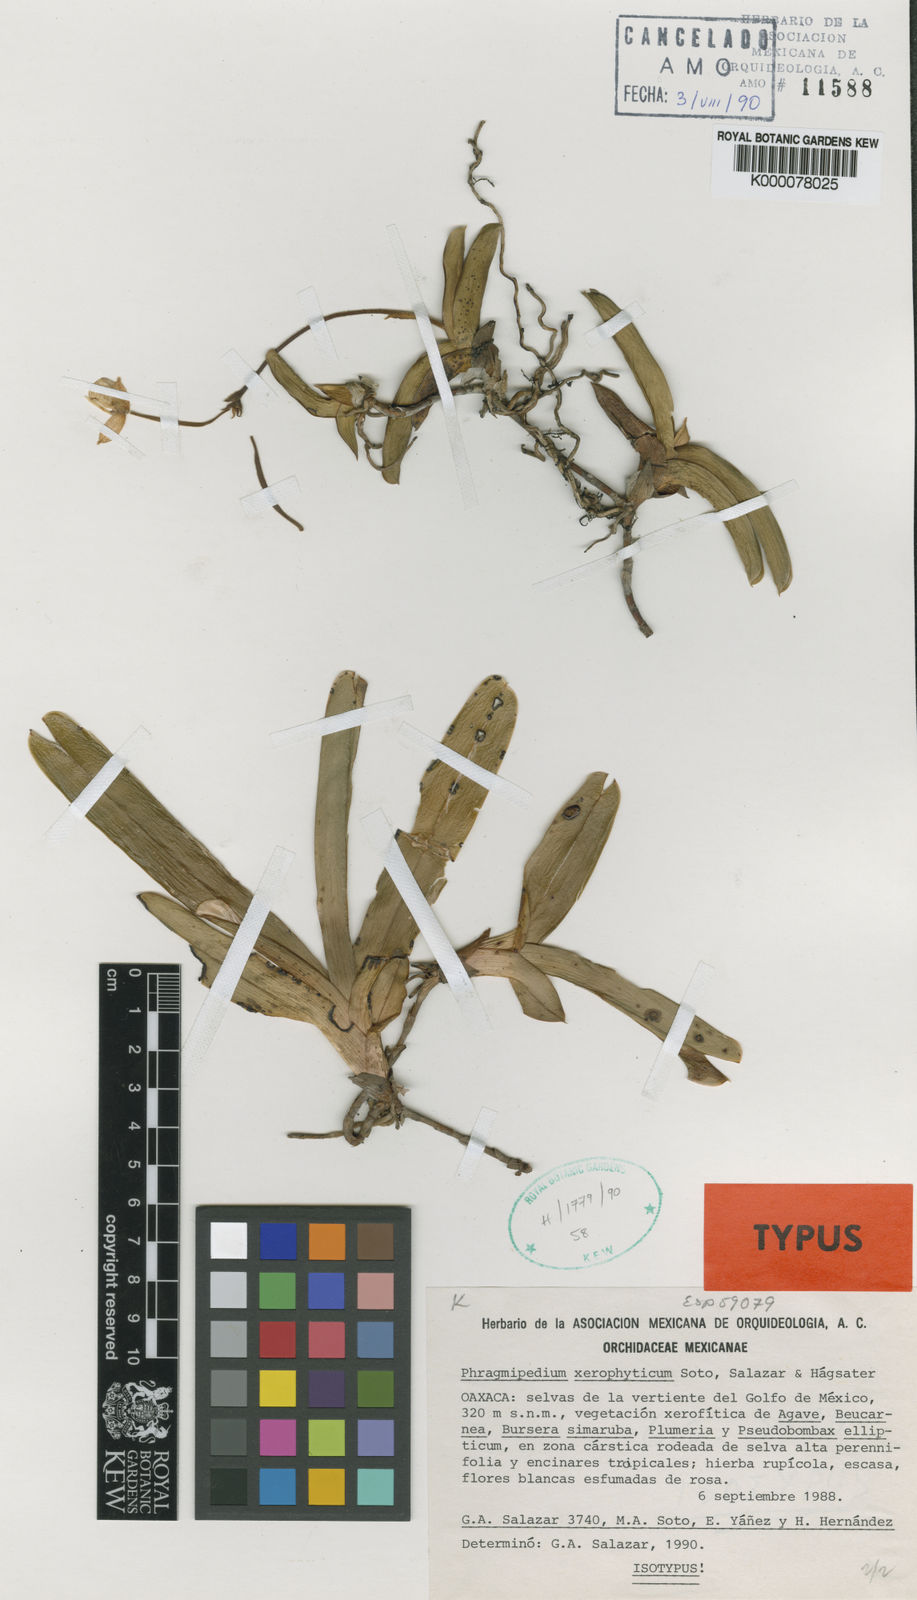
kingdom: Plantae
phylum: Tracheophyta
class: Liliopsida
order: Asparagales
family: Orchidaceae
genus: Mexipedium
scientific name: Mexipedium
